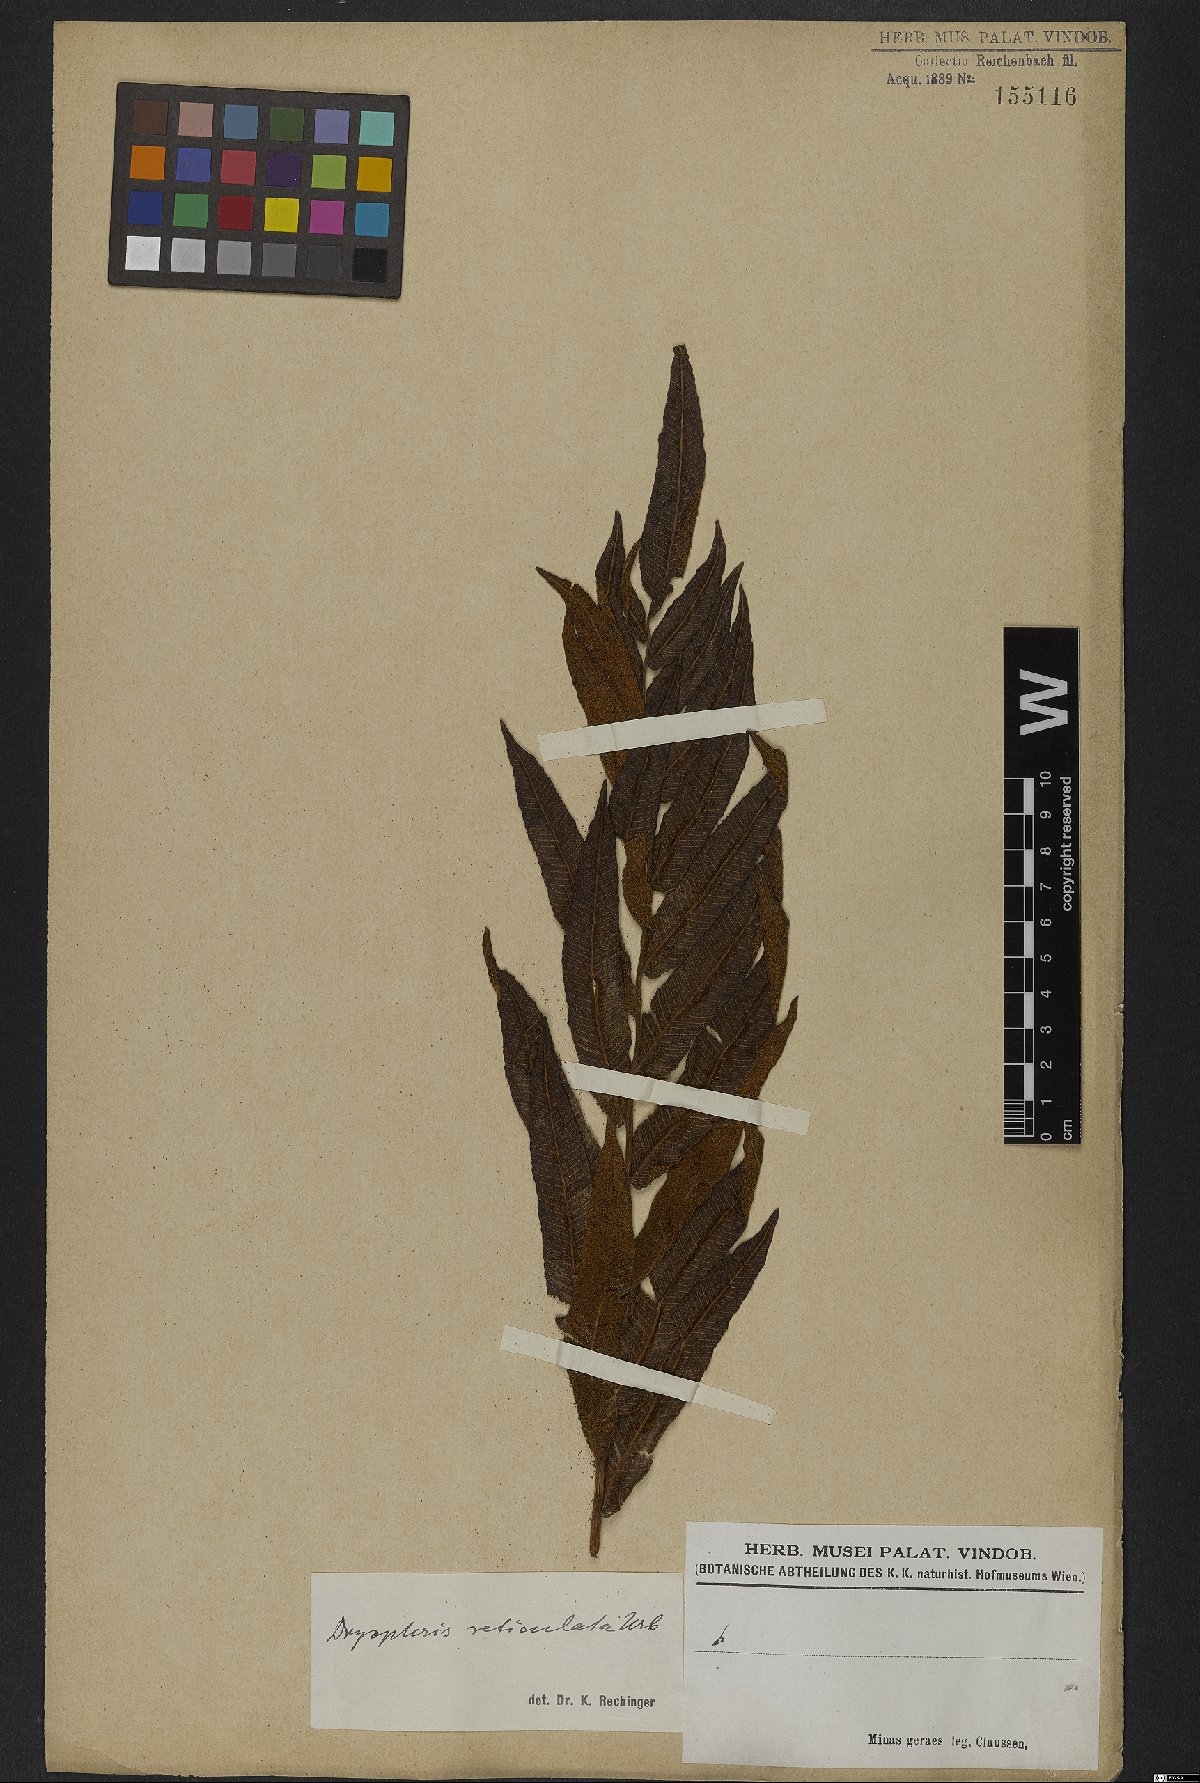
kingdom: Plantae
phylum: Tracheophyta
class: Polypodiopsida
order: Polypodiales
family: Thelypteridaceae
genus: Meniscium
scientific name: Meniscium reticulatum
